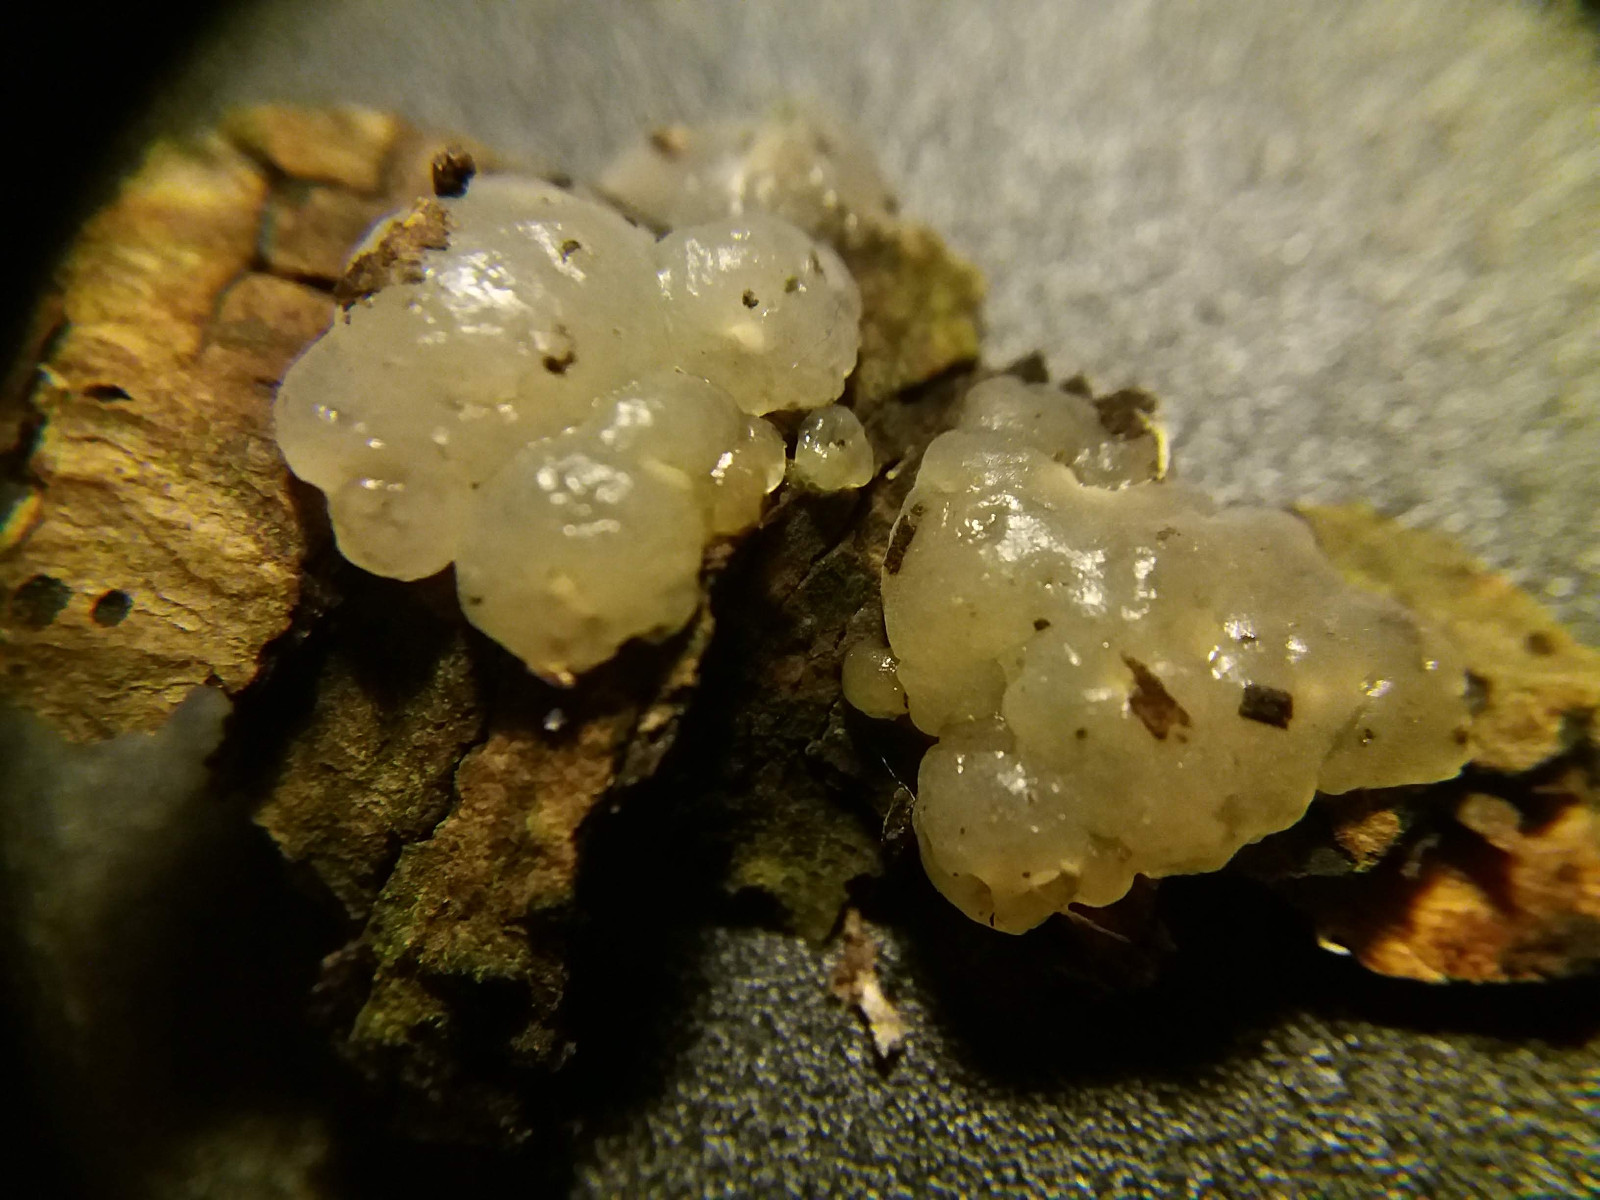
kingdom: Fungi
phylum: Basidiomycota
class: Agaricomycetes
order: Auriculariales
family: Hyaloriaceae
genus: Myxarium
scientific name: Myxarium nucleatum
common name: klar bævretop
